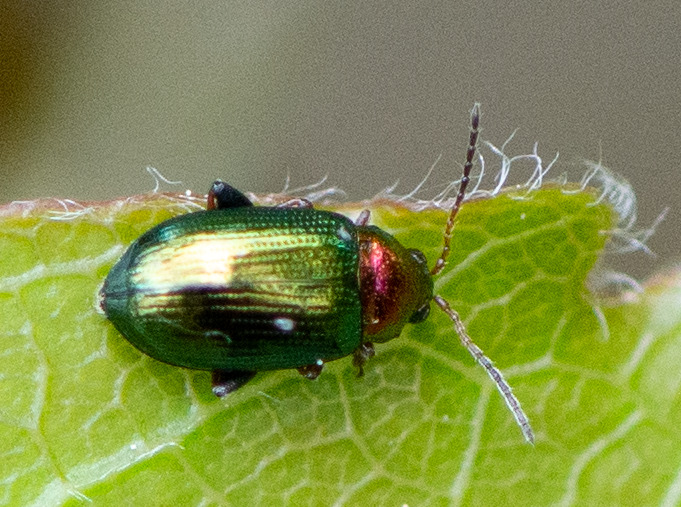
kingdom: Animalia
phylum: Arthropoda
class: Insecta
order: Coleoptera
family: Chrysomelidae
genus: Crepidodera
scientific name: Crepidodera aurata
